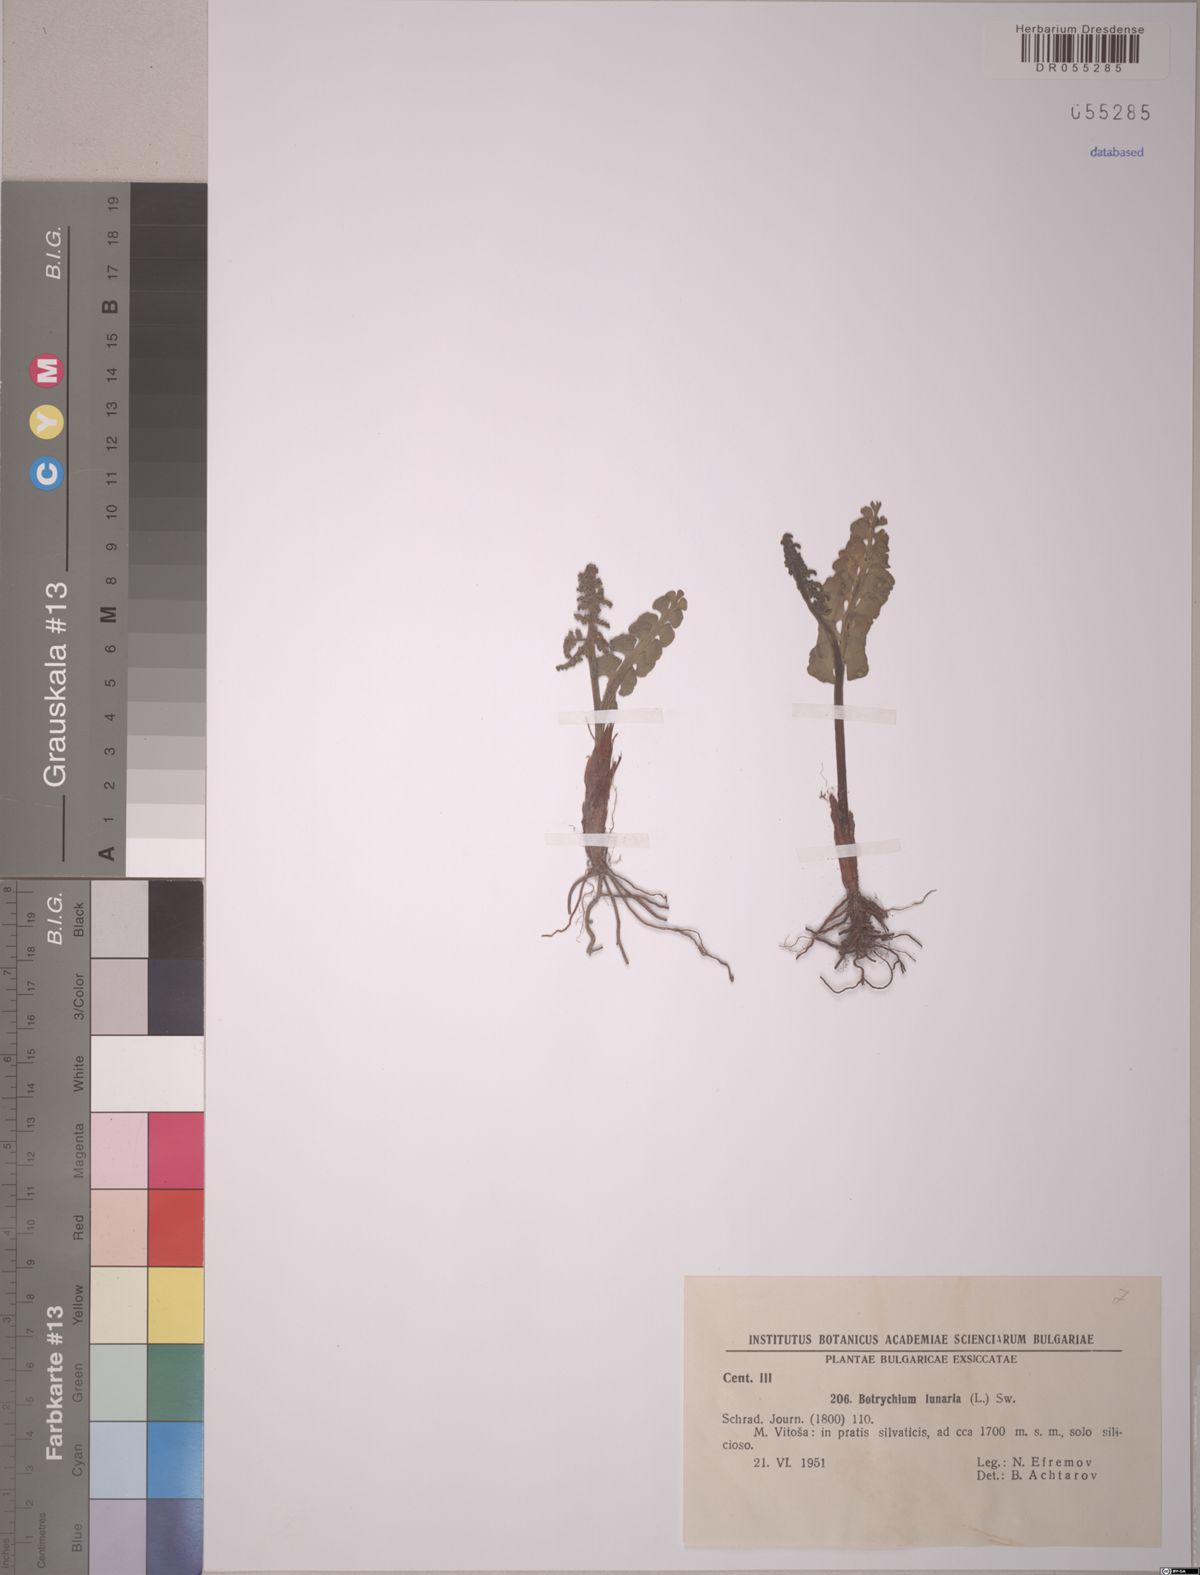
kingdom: Plantae
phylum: Tracheophyta
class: Polypodiopsida
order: Ophioglossales
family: Ophioglossaceae
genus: Botrychium
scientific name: Botrychium lunaria
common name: Moonwort
